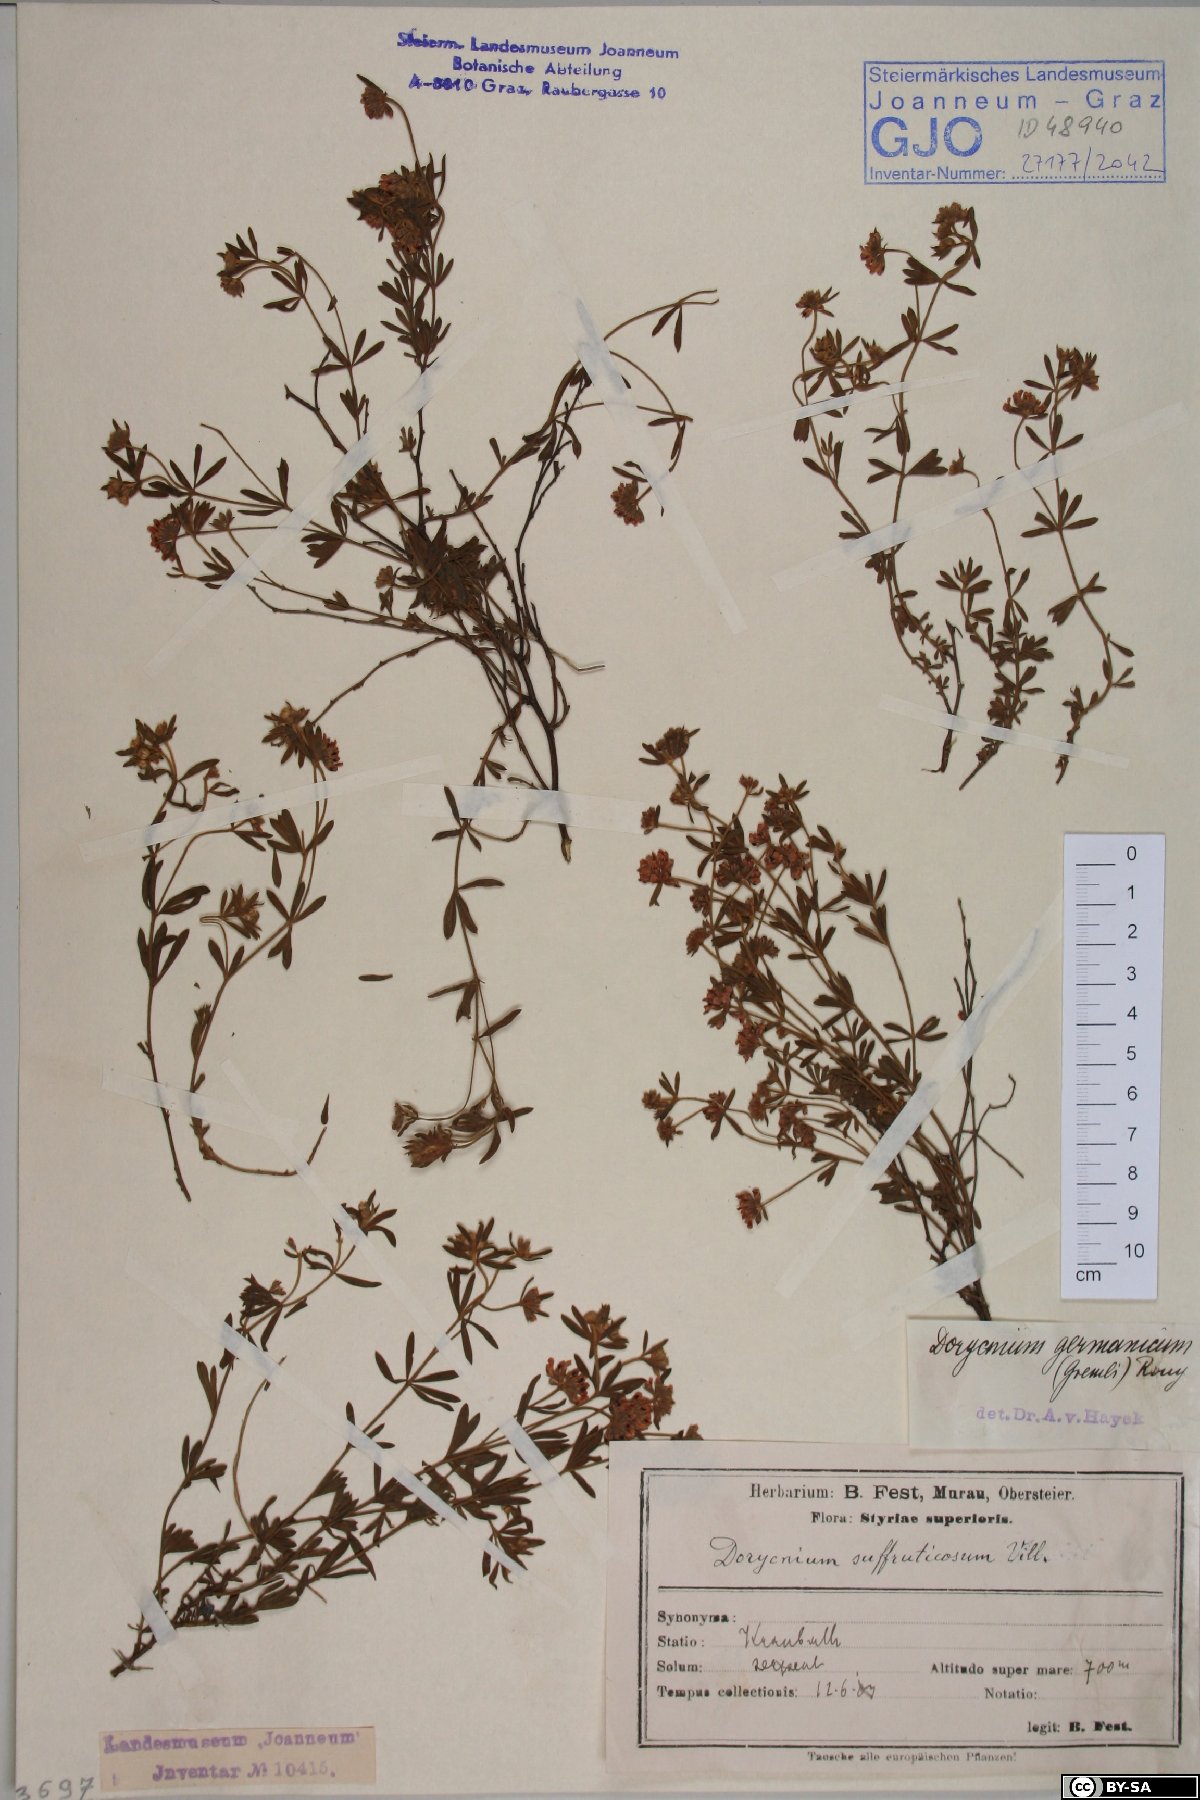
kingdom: Plantae
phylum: Tracheophyta
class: Magnoliopsida
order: Fabales
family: Fabaceae
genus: Lotus
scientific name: Lotus germanicus
